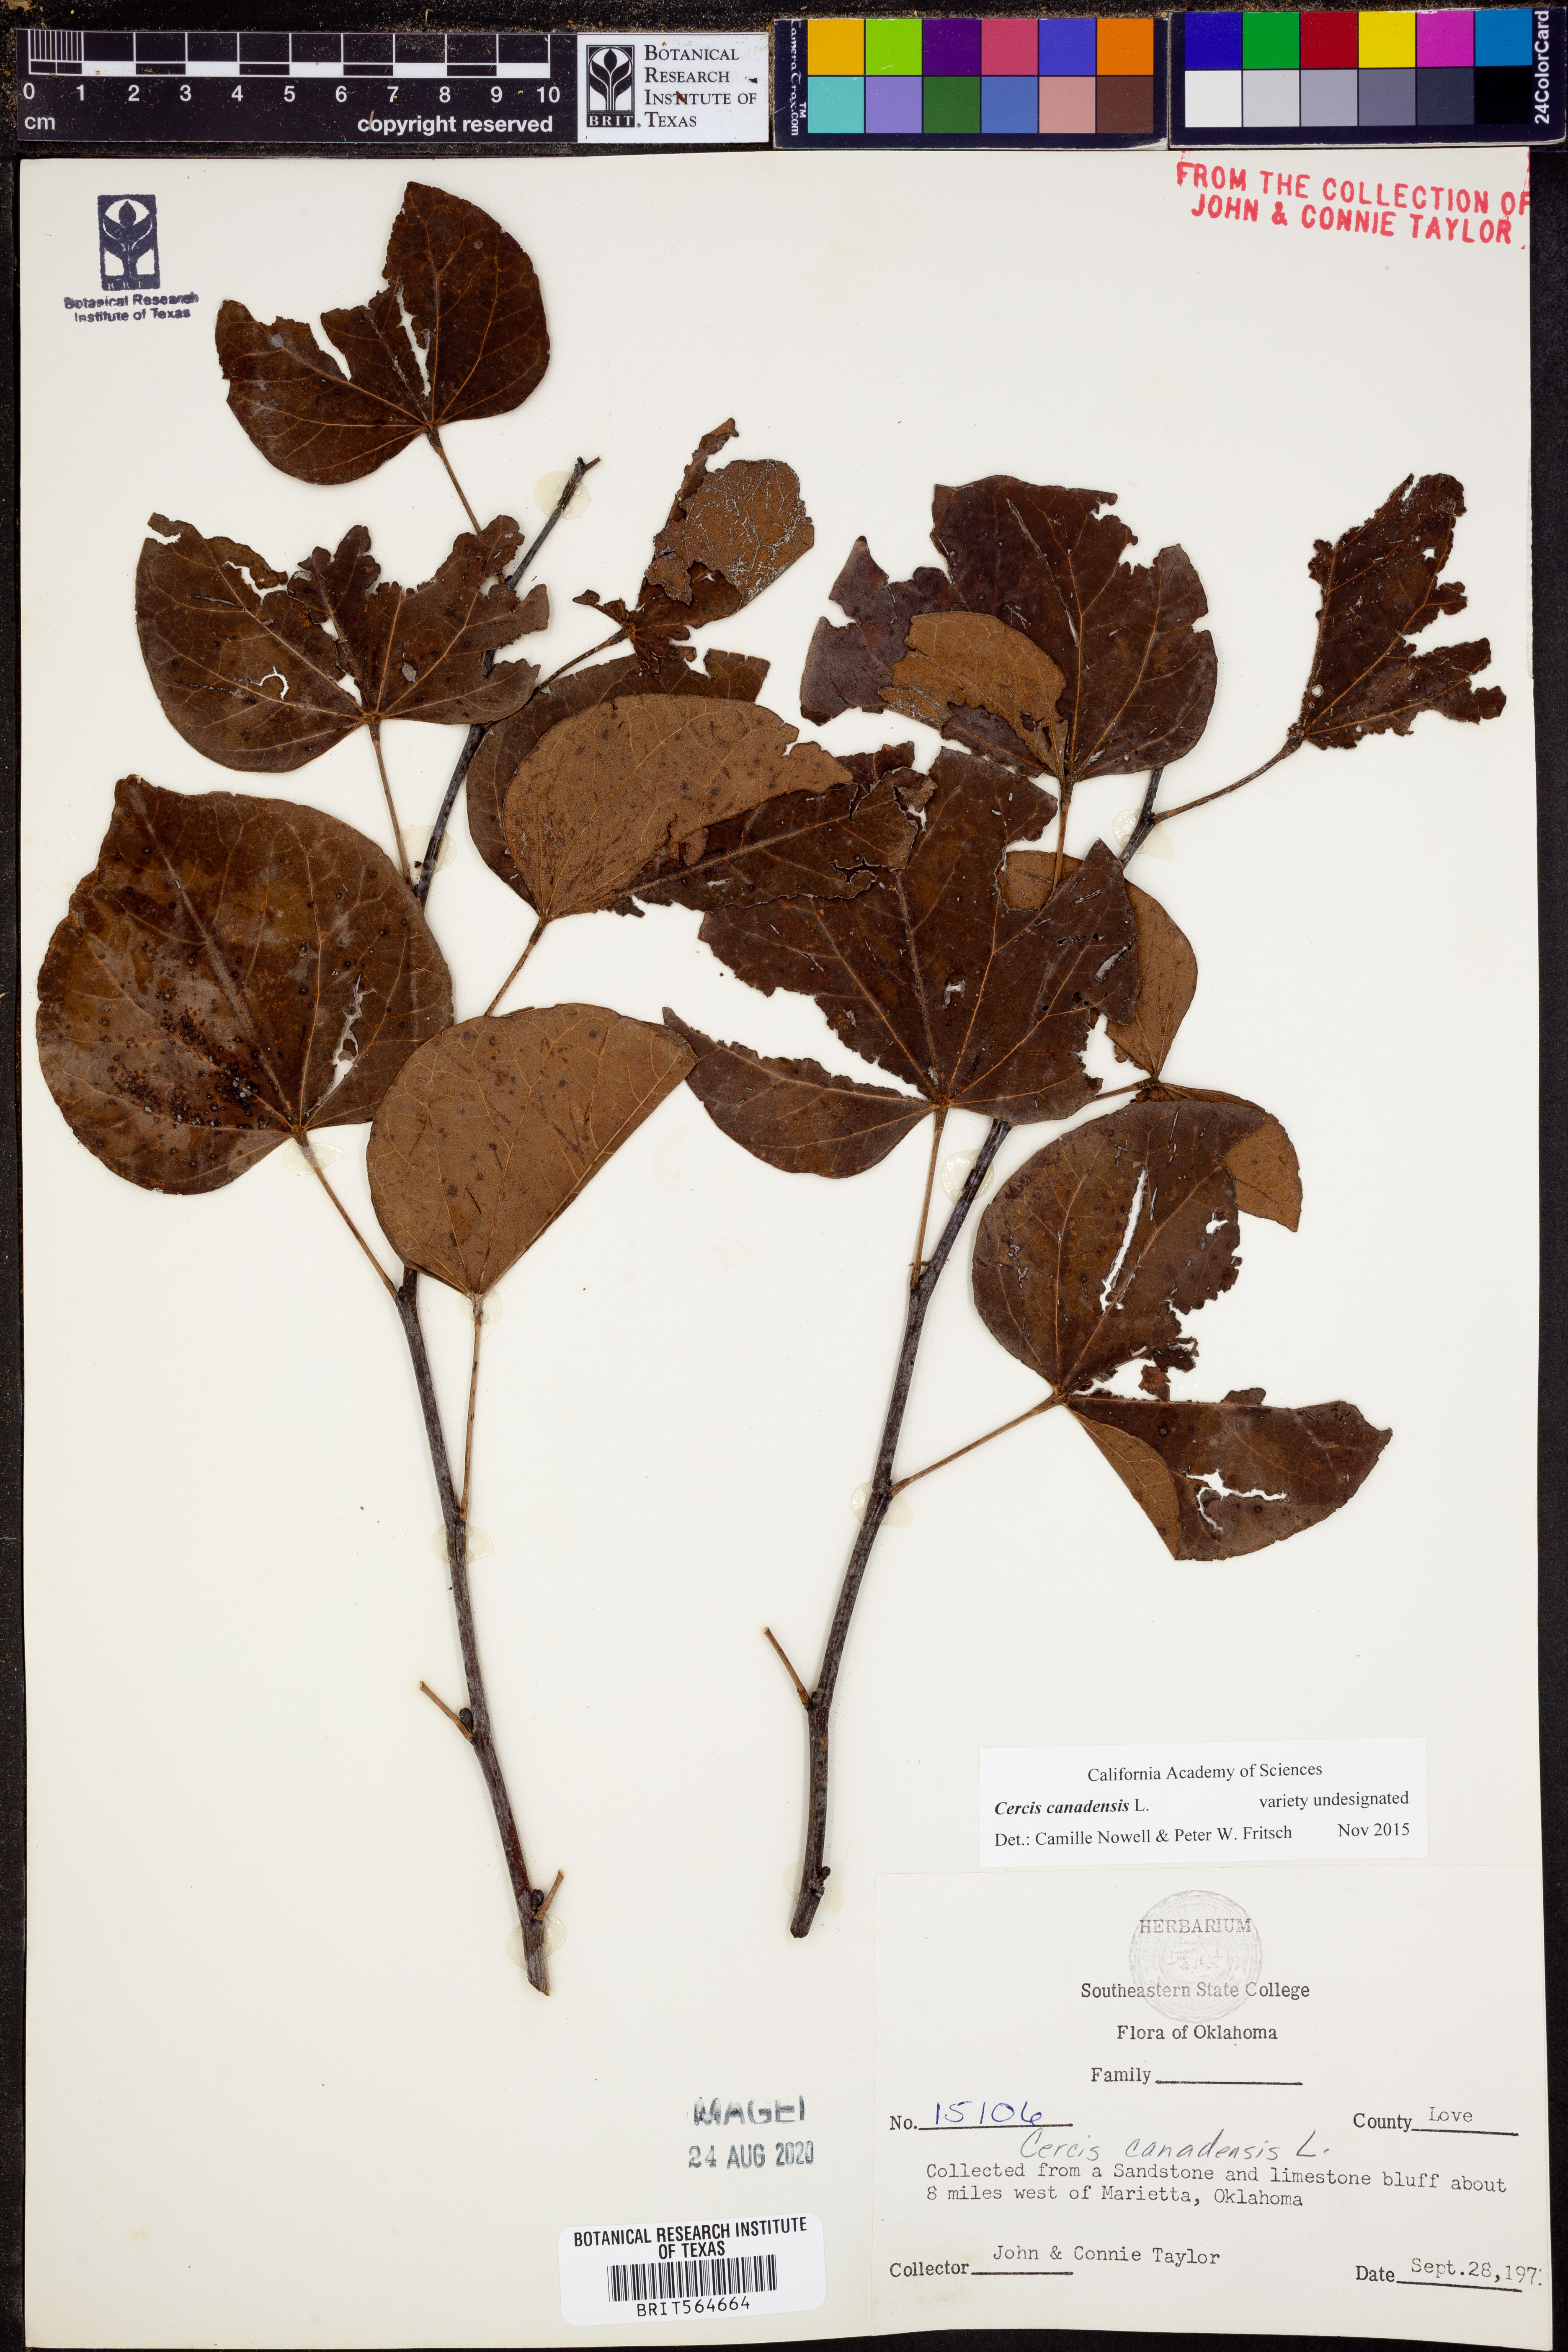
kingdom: Plantae
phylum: Tracheophyta
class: Magnoliopsida
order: Fabales
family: Fabaceae
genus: Cercis
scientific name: Cercis canadensis
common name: Eastern redbud
